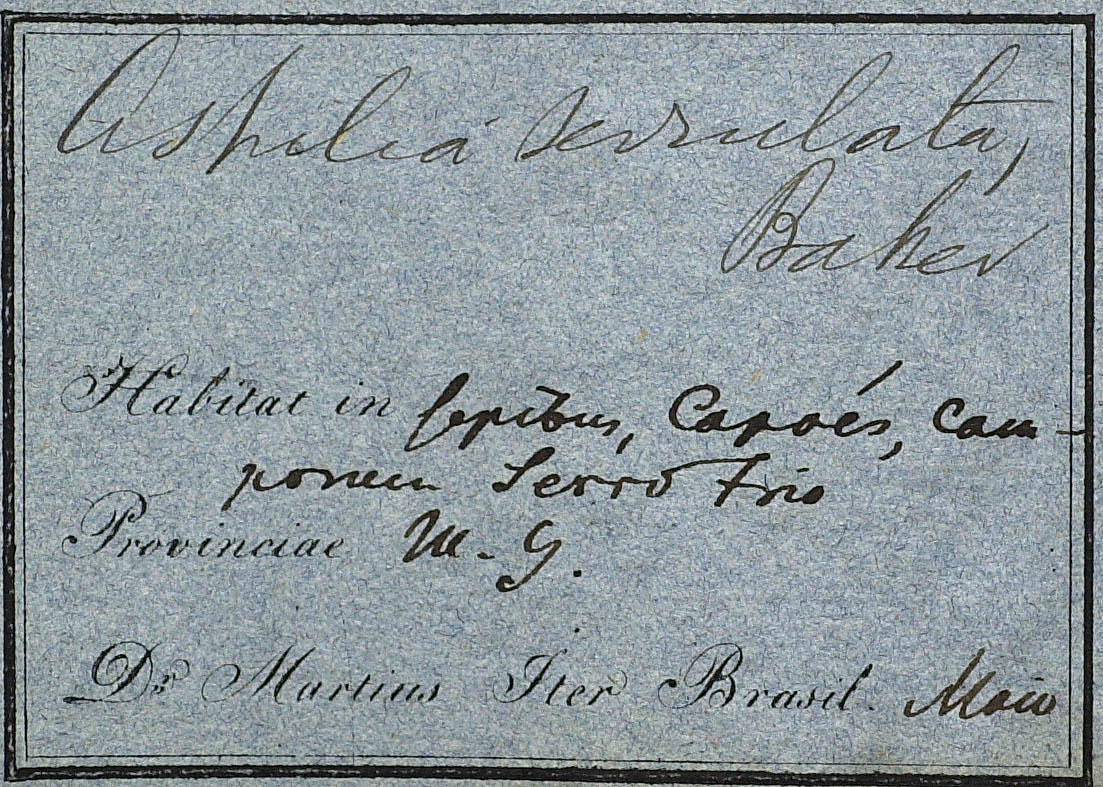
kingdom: Plantae
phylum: Tracheophyta
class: Magnoliopsida
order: Asterales
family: Asteraceae
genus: Wedelia
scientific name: Wedelia serrulata
